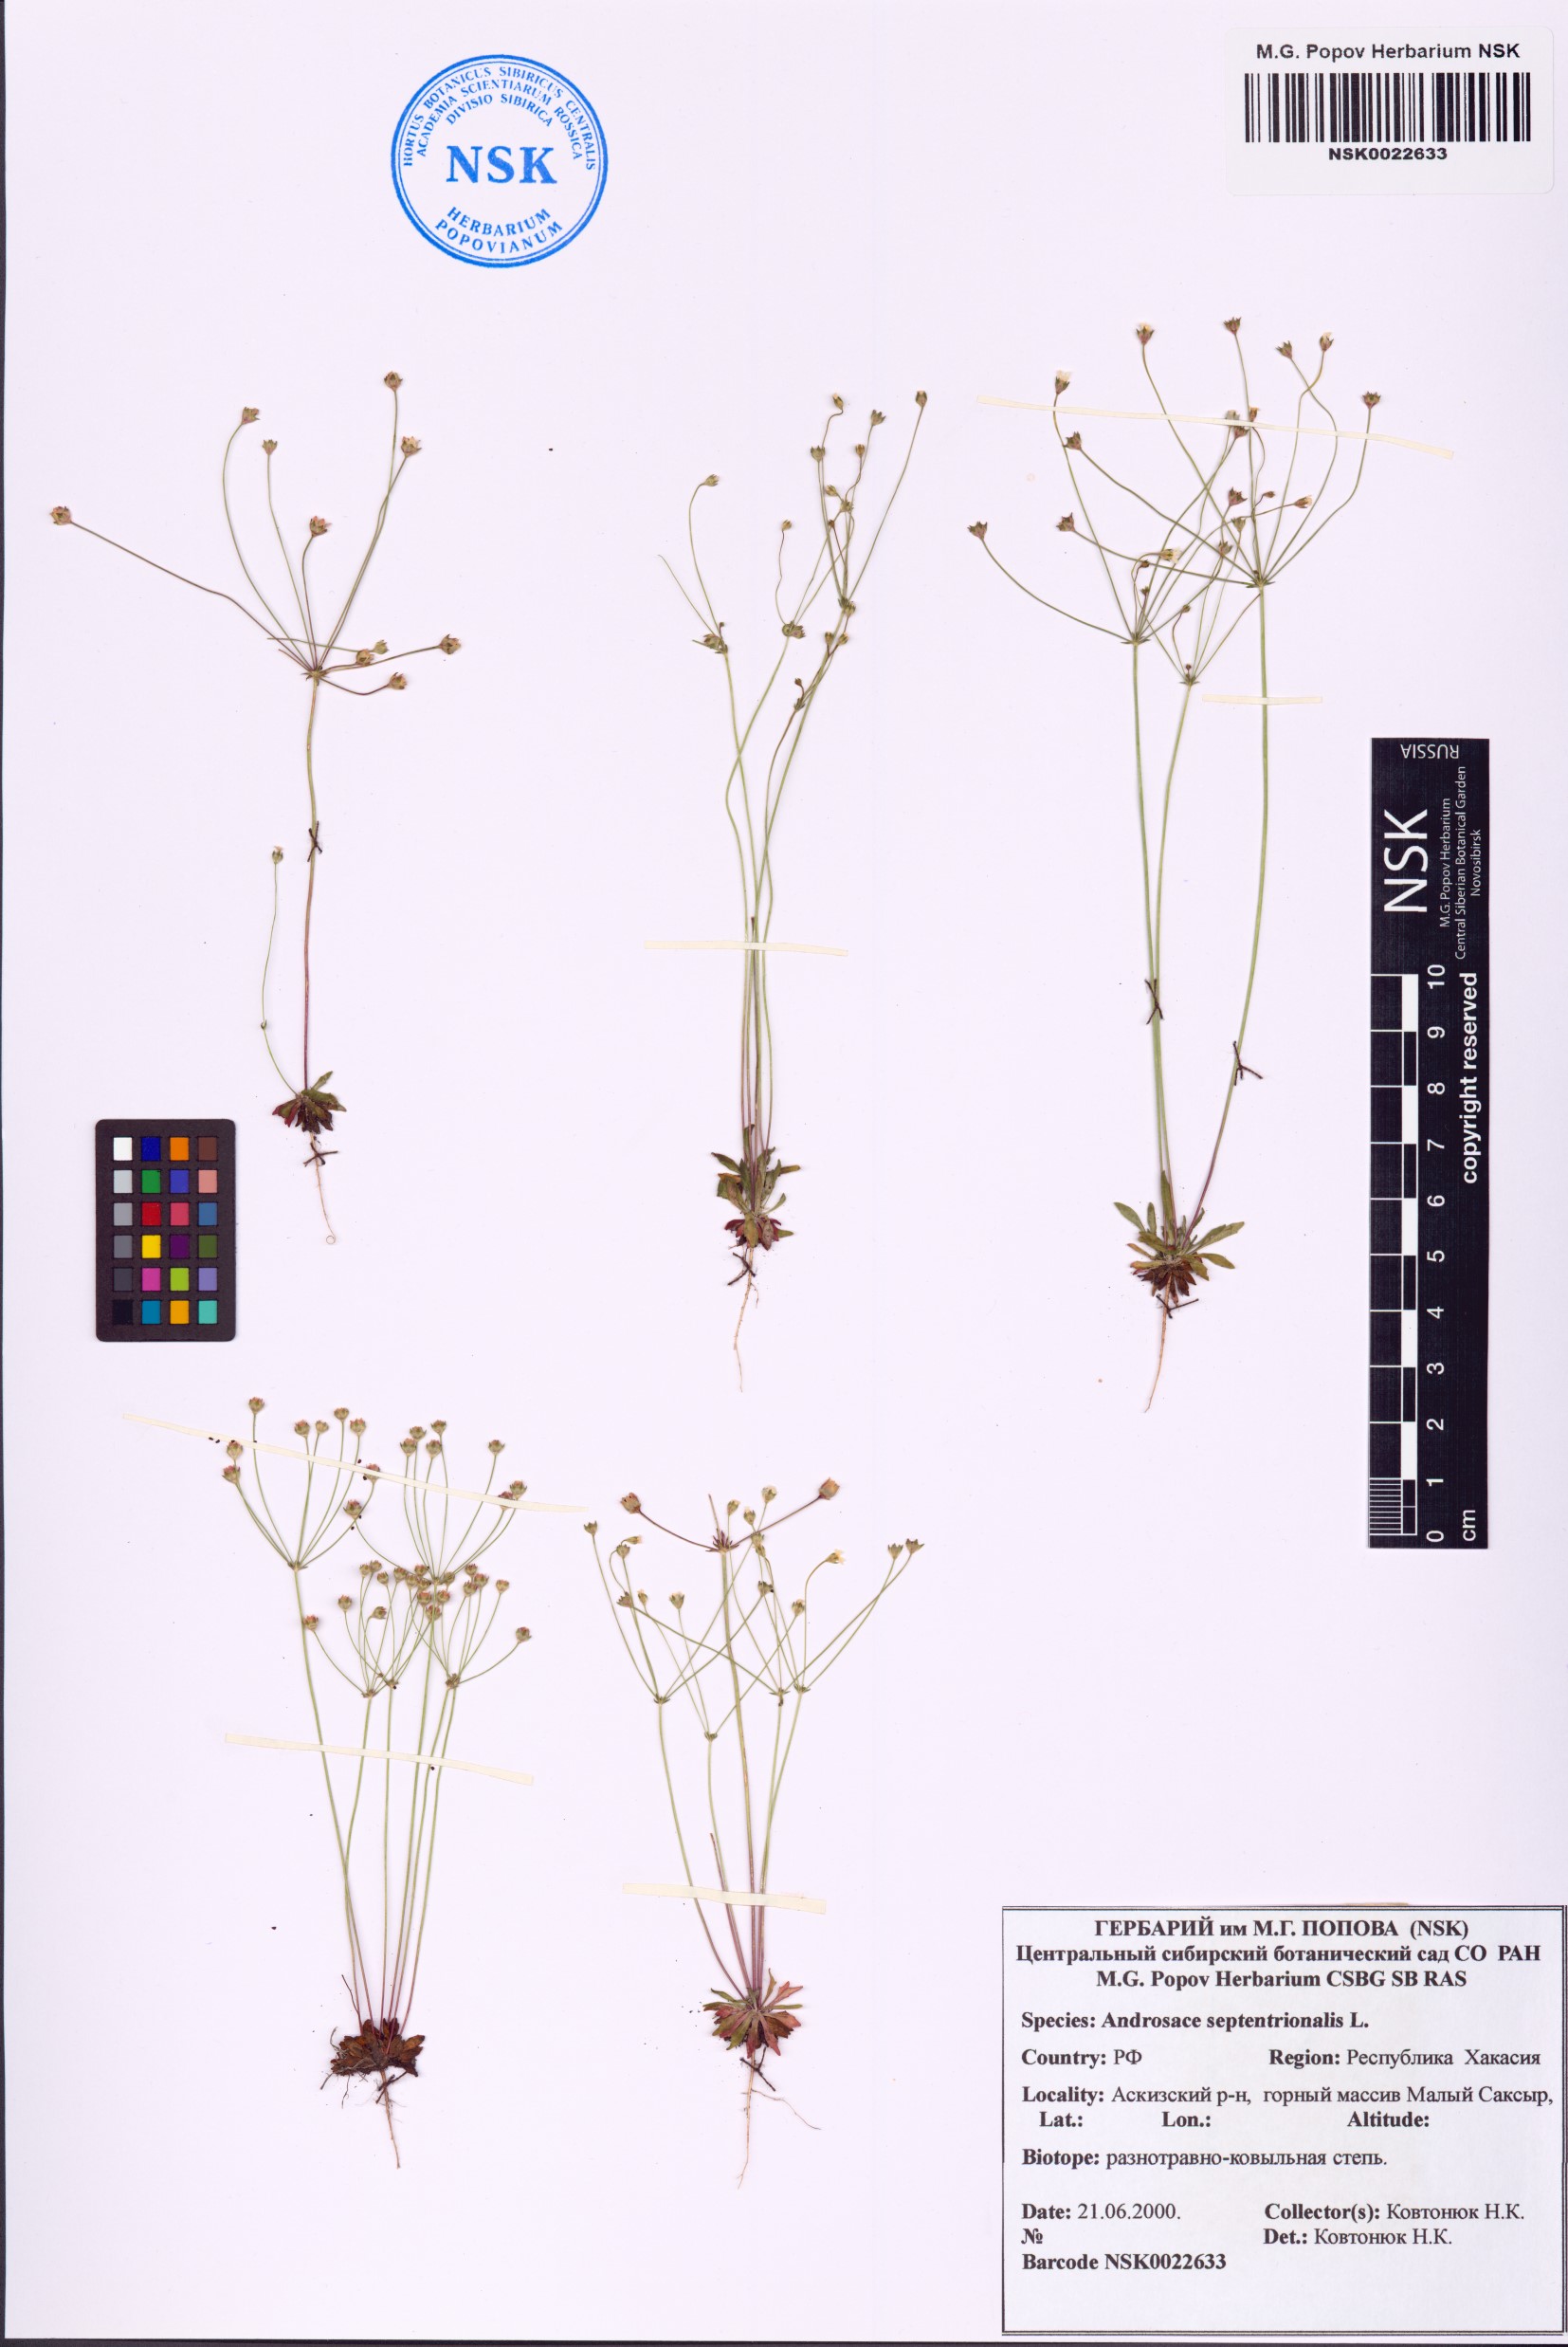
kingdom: Plantae
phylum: Tracheophyta
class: Magnoliopsida
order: Ericales
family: Primulaceae
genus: Androsace
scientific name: Androsace septentrionalis
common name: Hairy northern fairy-candelabra
